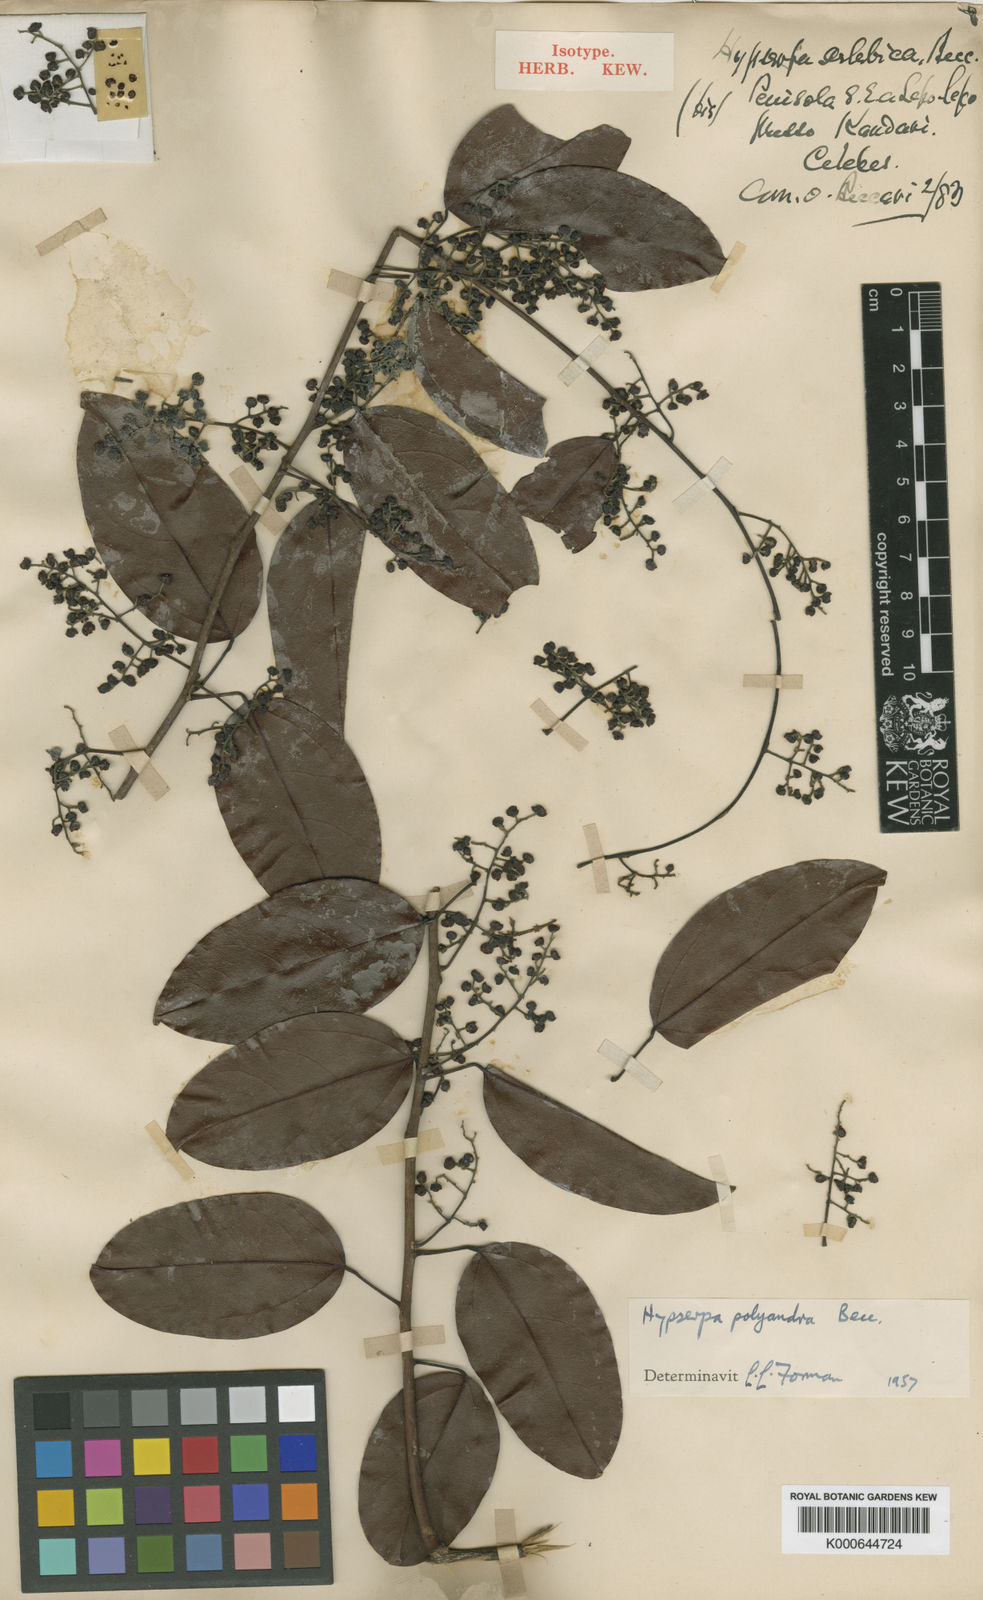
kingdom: Plantae
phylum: Tracheophyta
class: Magnoliopsida
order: Ranunculales
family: Menispermaceae
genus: Hypserpa
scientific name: Hypserpa polyandra
